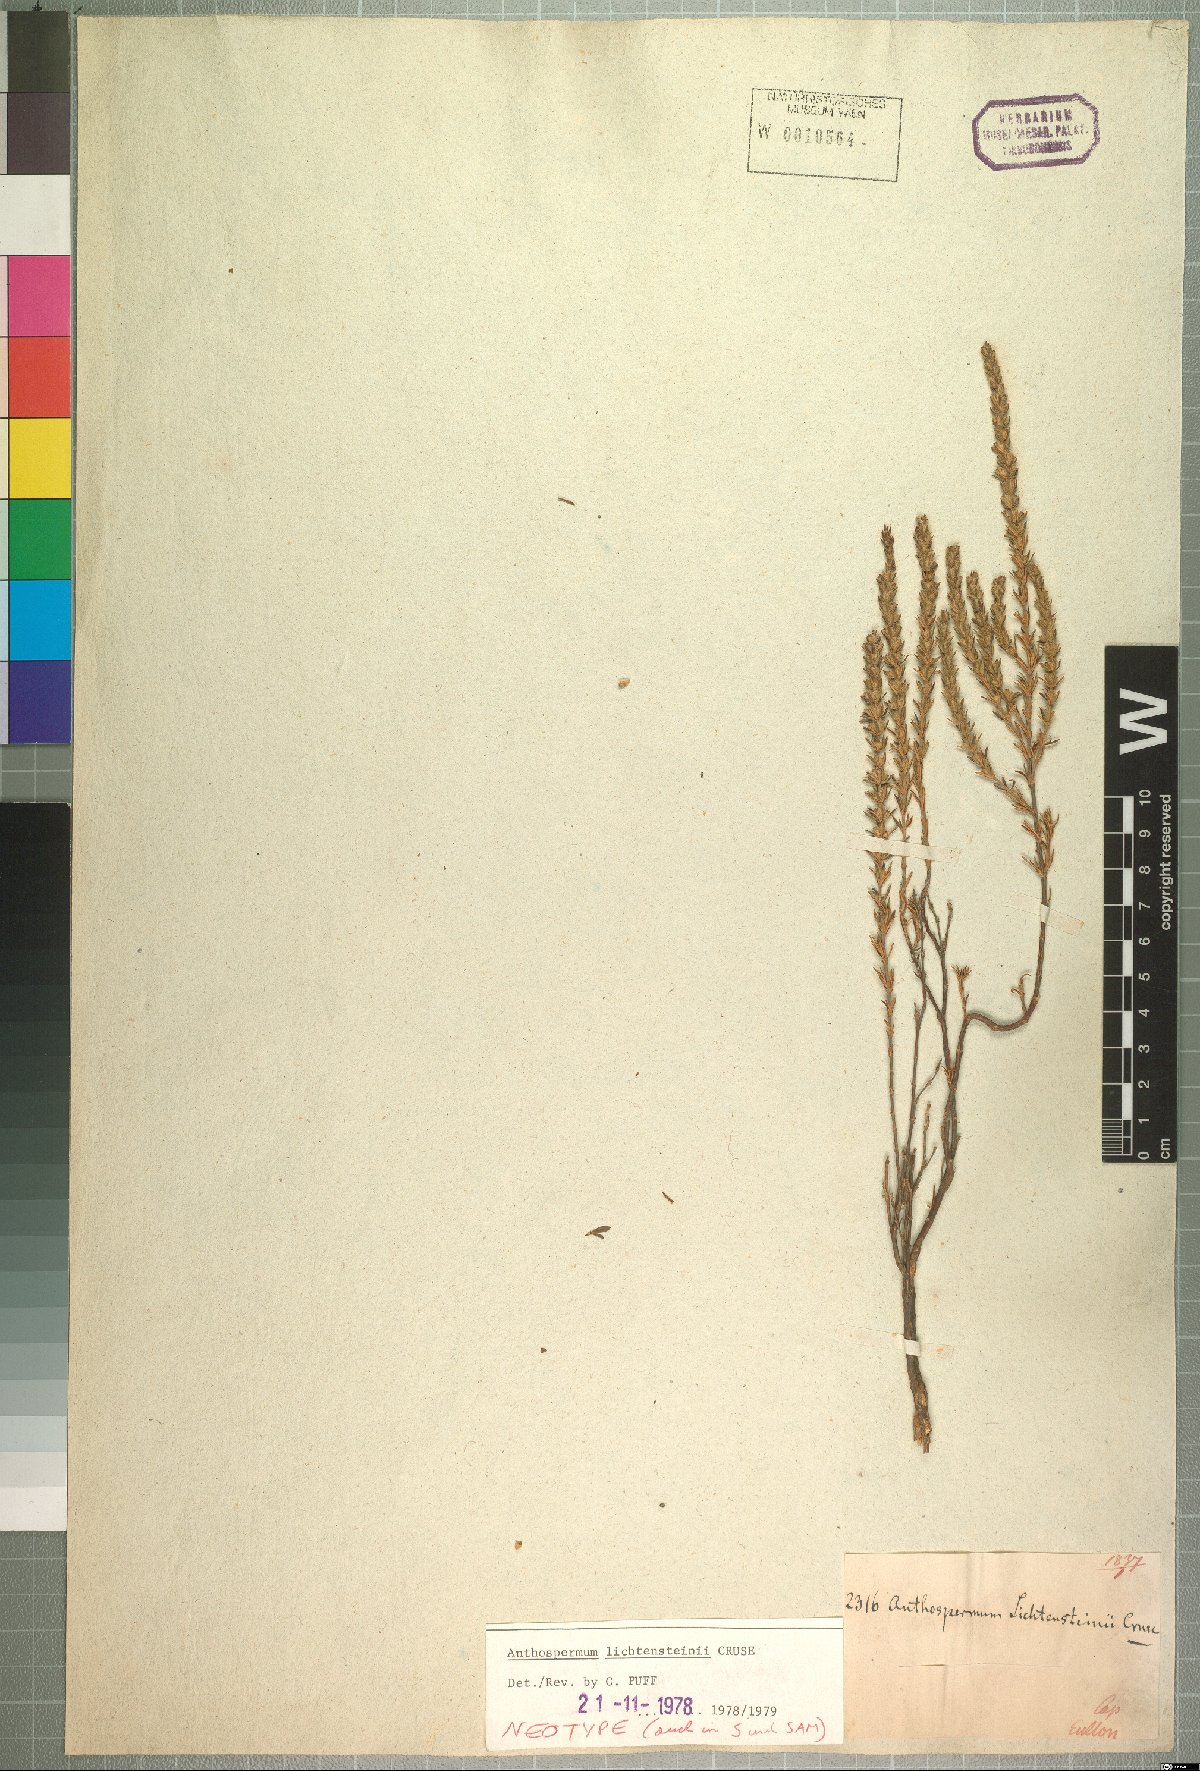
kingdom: Plantae
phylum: Tracheophyta
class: Magnoliopsida
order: Gentianales
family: Rubiaceae
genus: Anthospermum
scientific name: Anthospermum ericifolium
